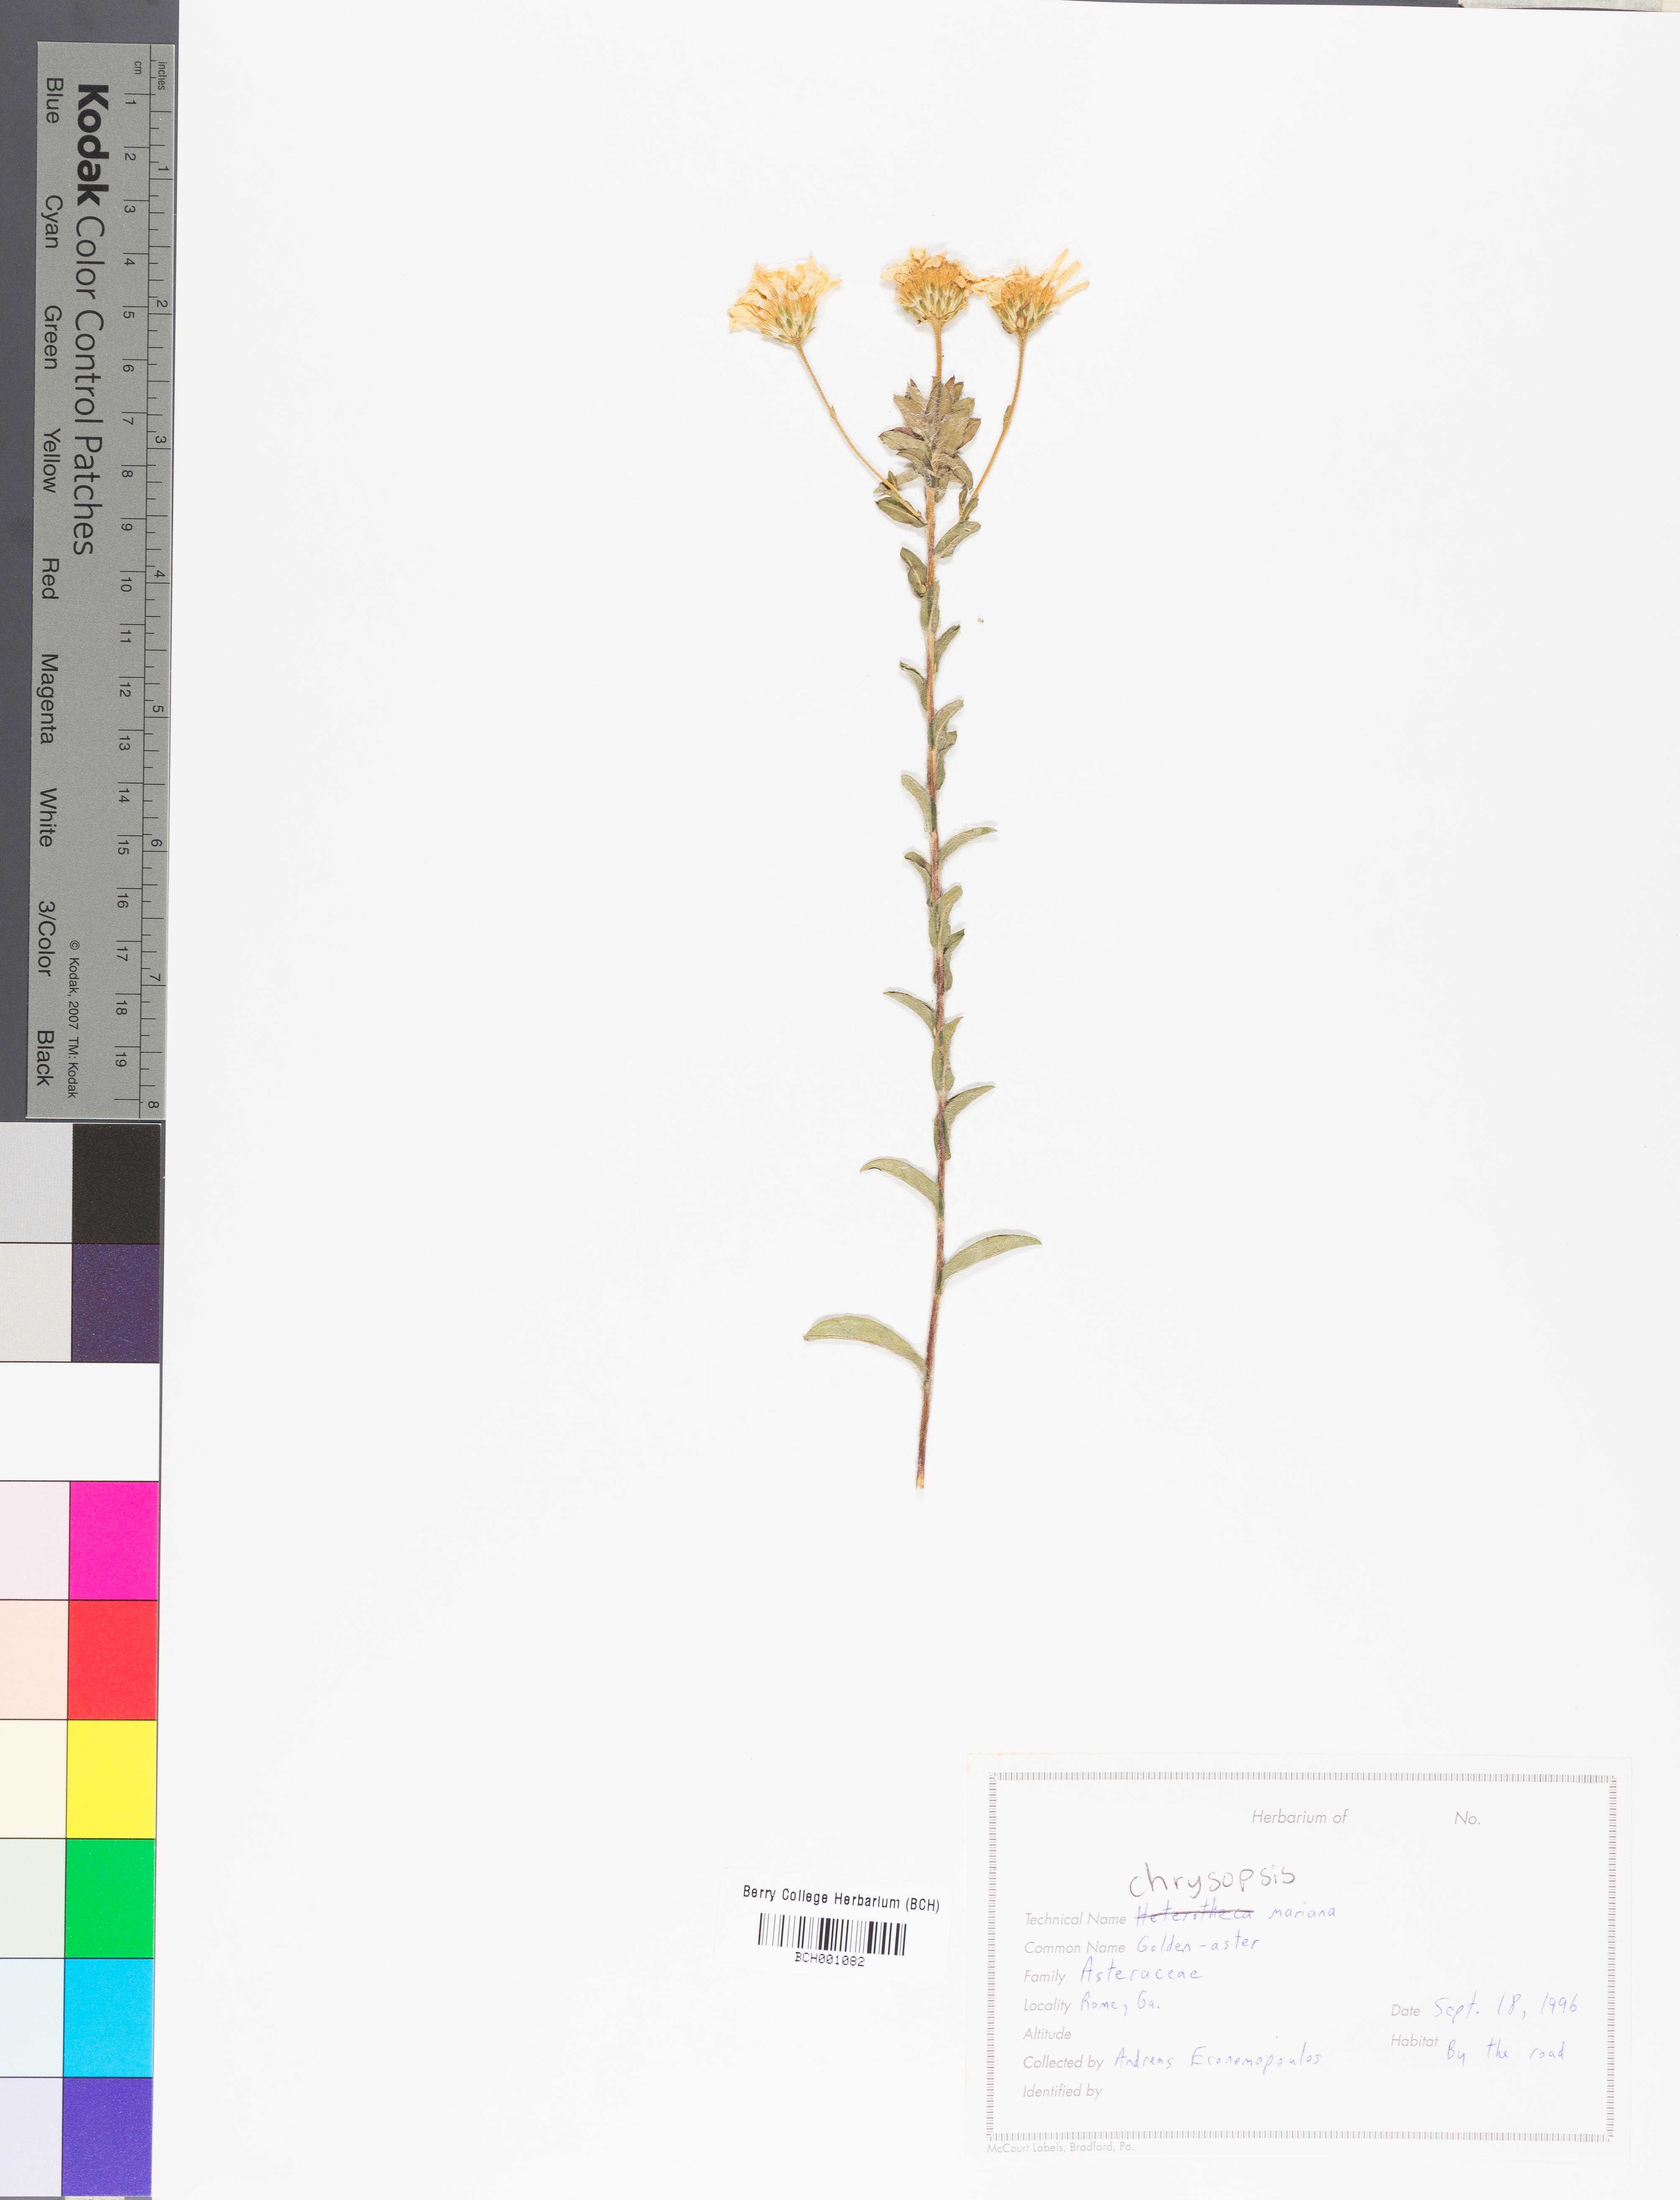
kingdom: Plantae
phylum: Tracheophyta
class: Magnoliopsida
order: Asterales
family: Asteraceae
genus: Chrysopsis
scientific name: Chrysopsis mariana
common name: Maryland golden-aster
